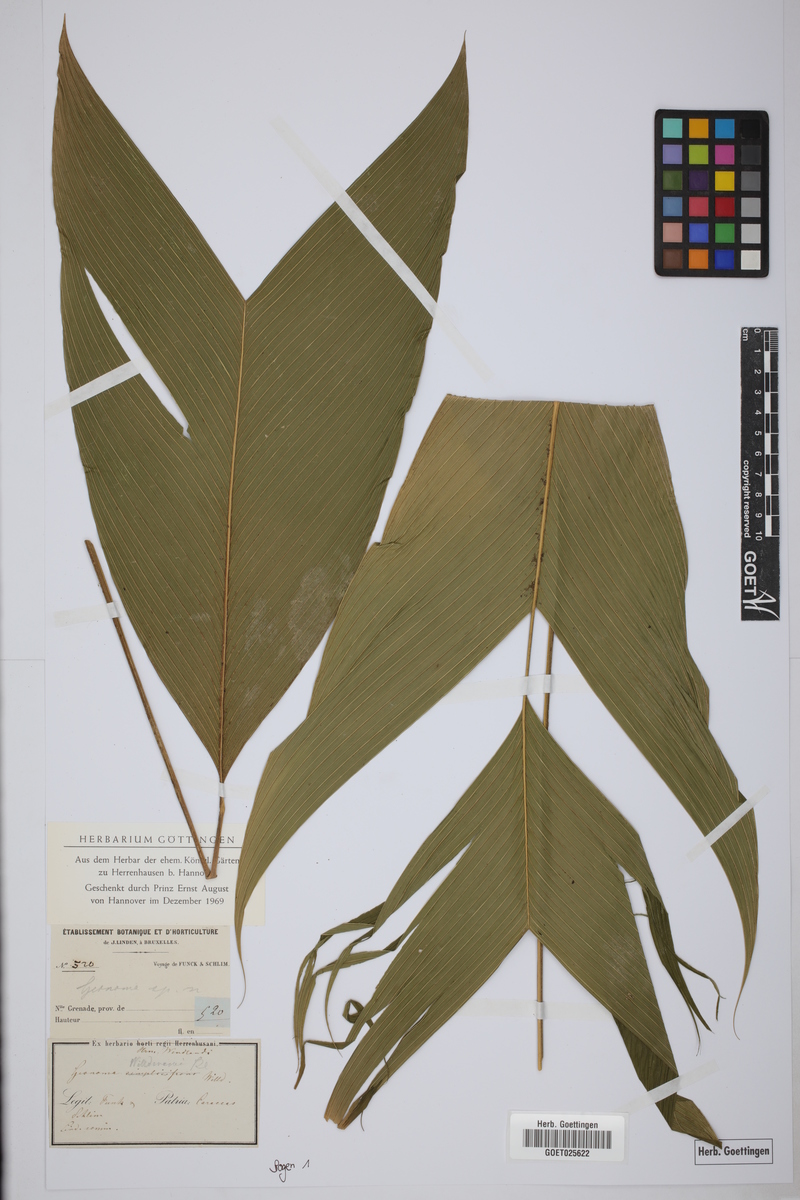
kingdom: Plantae
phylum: Tracheophyta
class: Liliopsida
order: Arecales
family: Arecaceae
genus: Geonoma
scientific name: Geonoma simplicifrons
